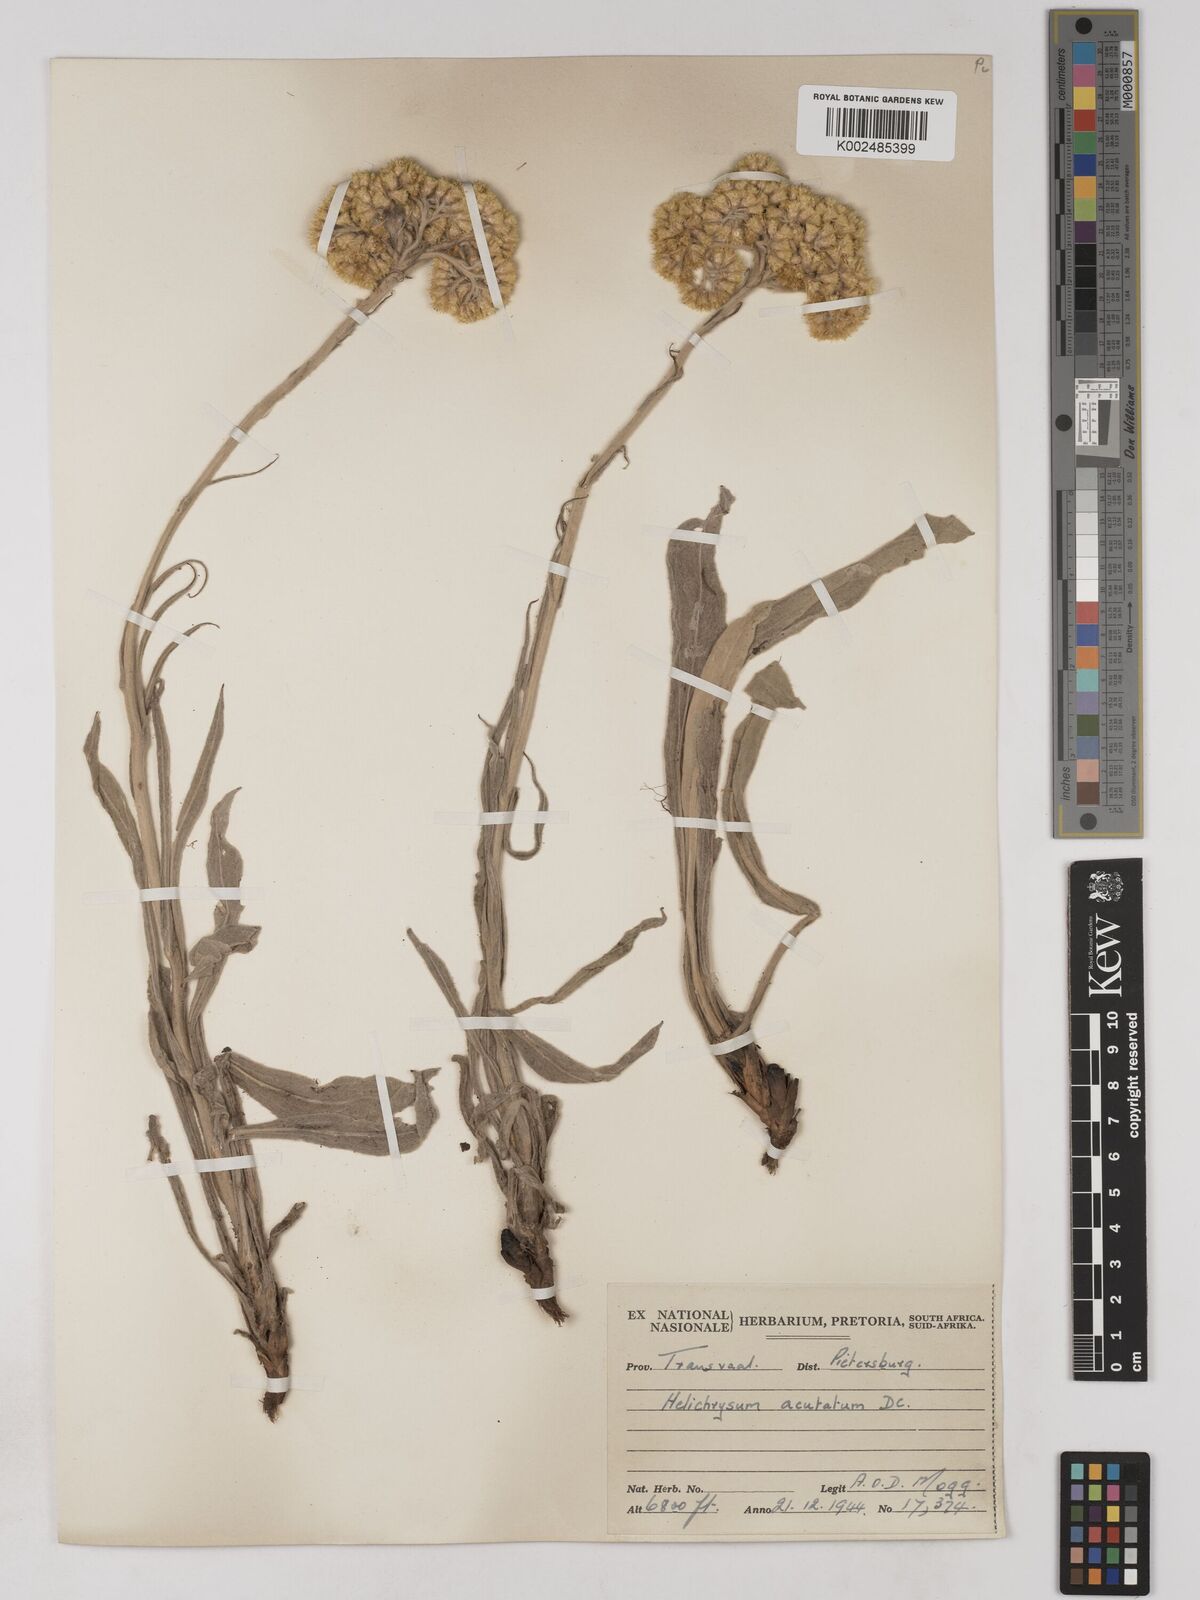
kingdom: Plantae
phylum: Tracheophyta
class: Magnoliopsida
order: Asterales
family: Asteraceae
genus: Helichrysum
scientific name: Helichrysum acutatum
